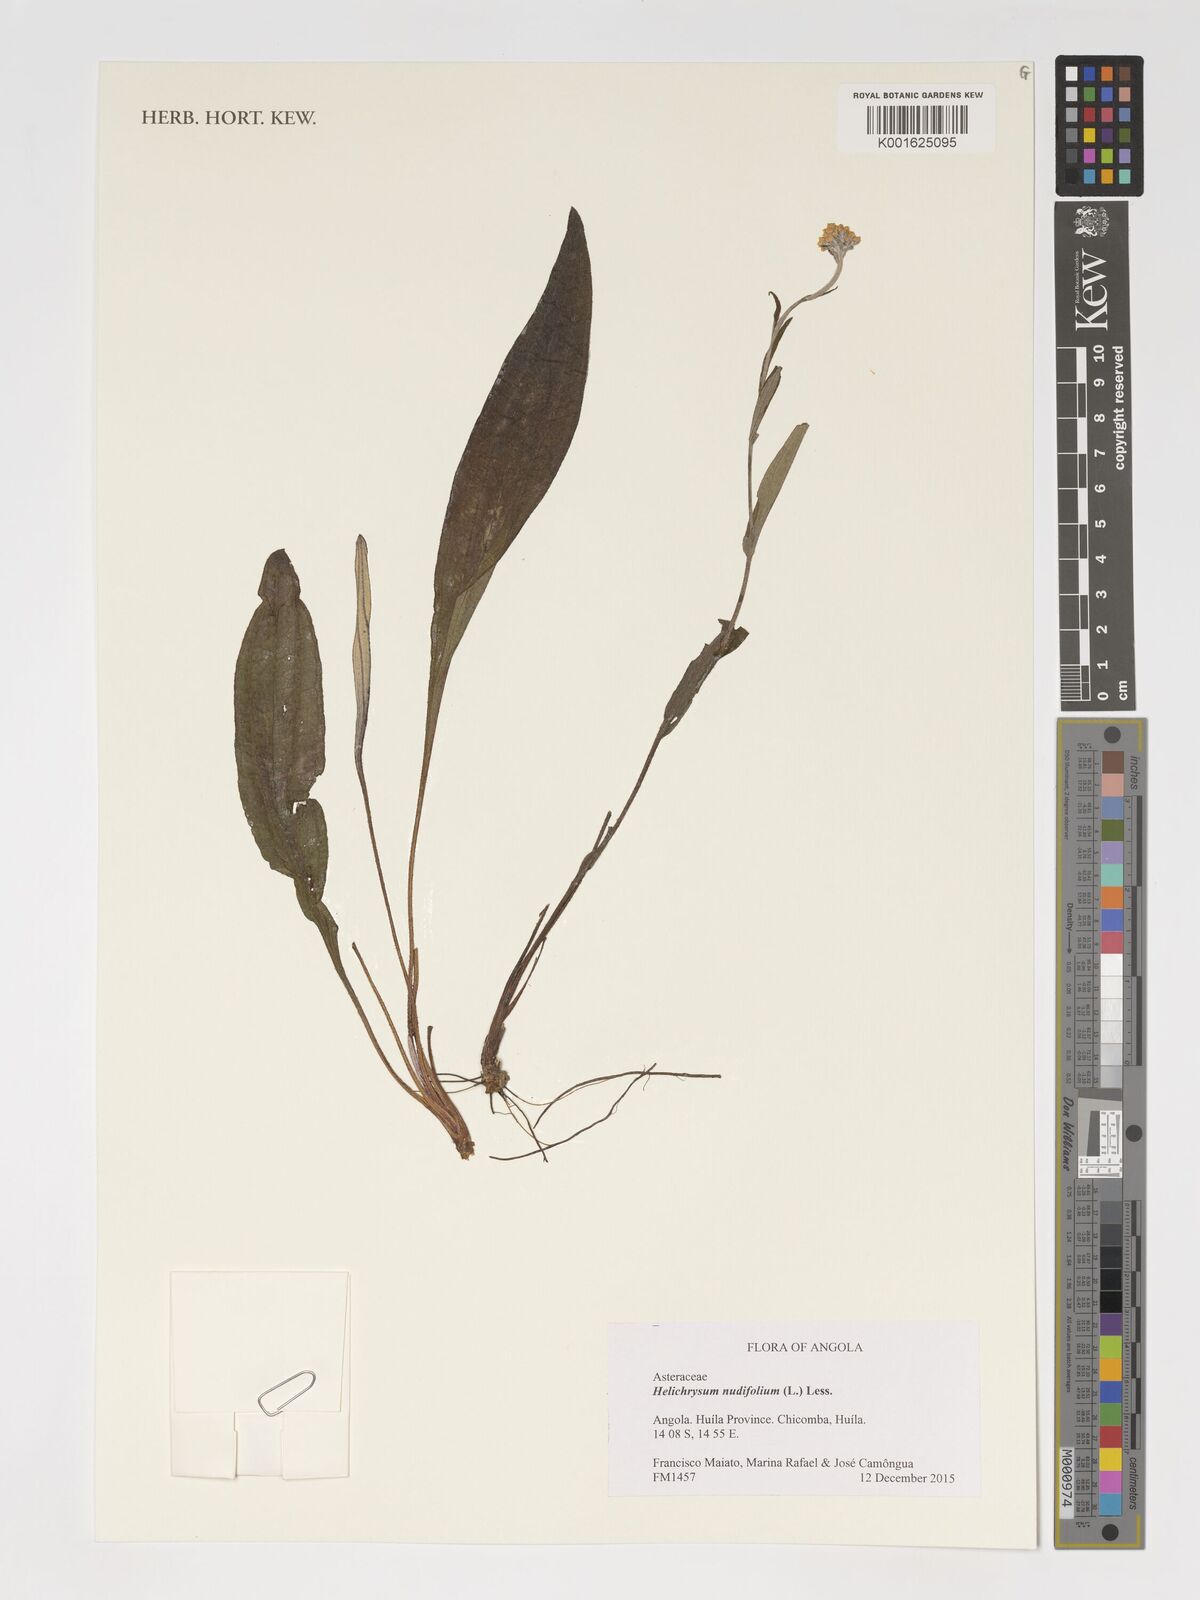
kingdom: Plantae
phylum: Tracheophyta
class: Magnoliopsida
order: Asterales
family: Asteraceae
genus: Helichrysum
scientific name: Helichrysum nudifolium
